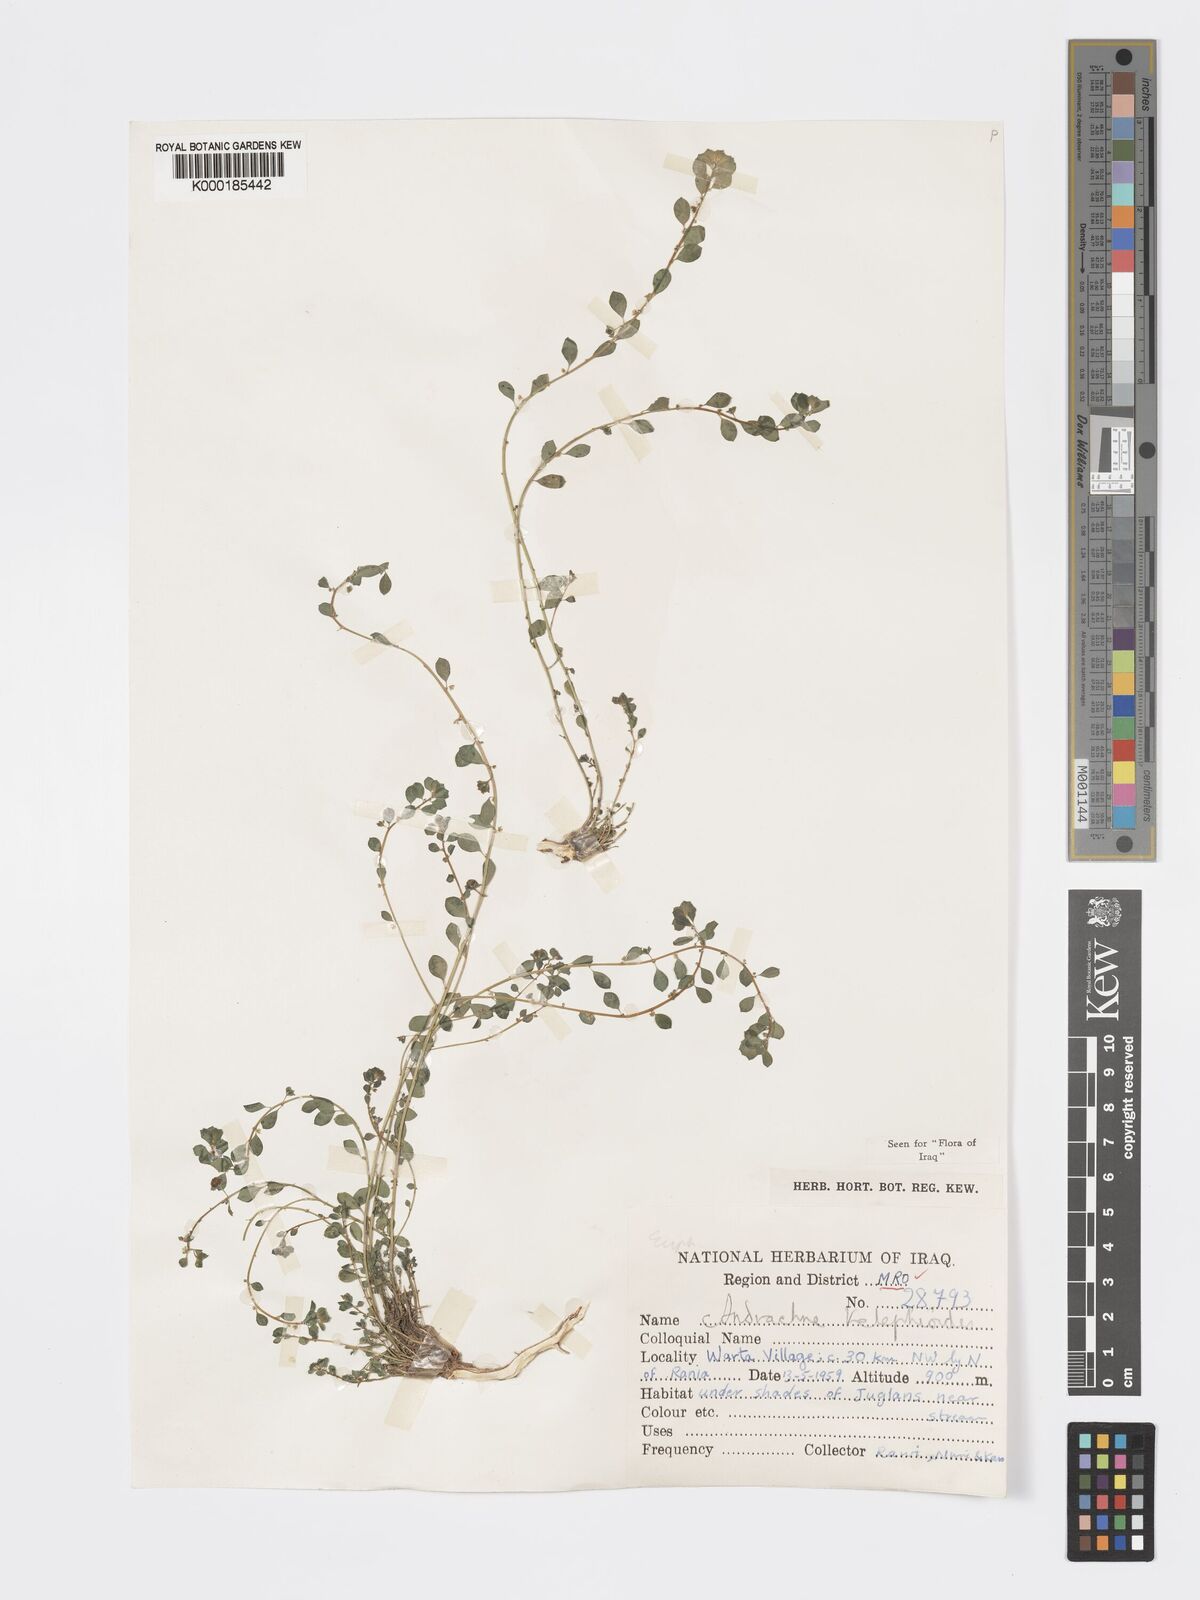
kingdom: Plantae
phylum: Tracheophyta
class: Magnoliopsida
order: Malpighiales
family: Phyllanthaceae
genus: Andrachne
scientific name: Andrachne telephioides
